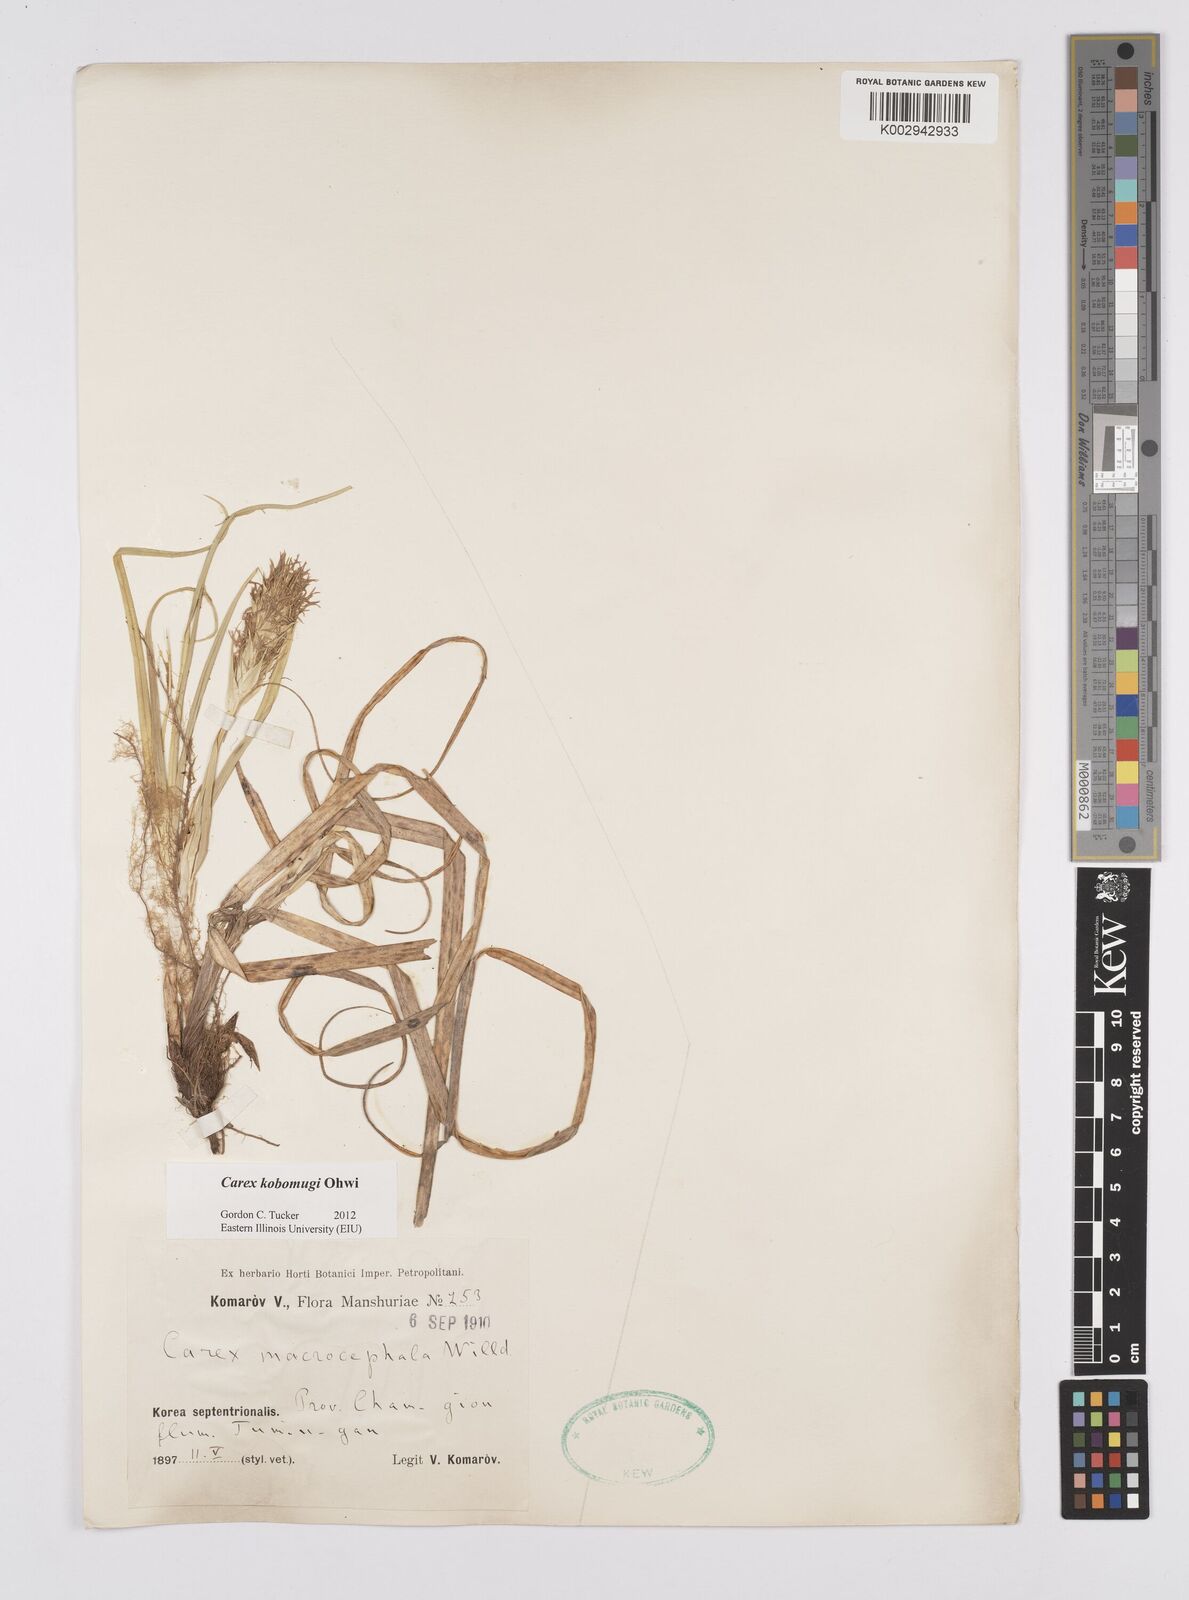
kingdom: Plantae
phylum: Tracheophyta
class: Liliopsida
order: Poales
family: Cyperaceae
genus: Carex
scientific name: Carex kobomugi
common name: Japanese sedge
